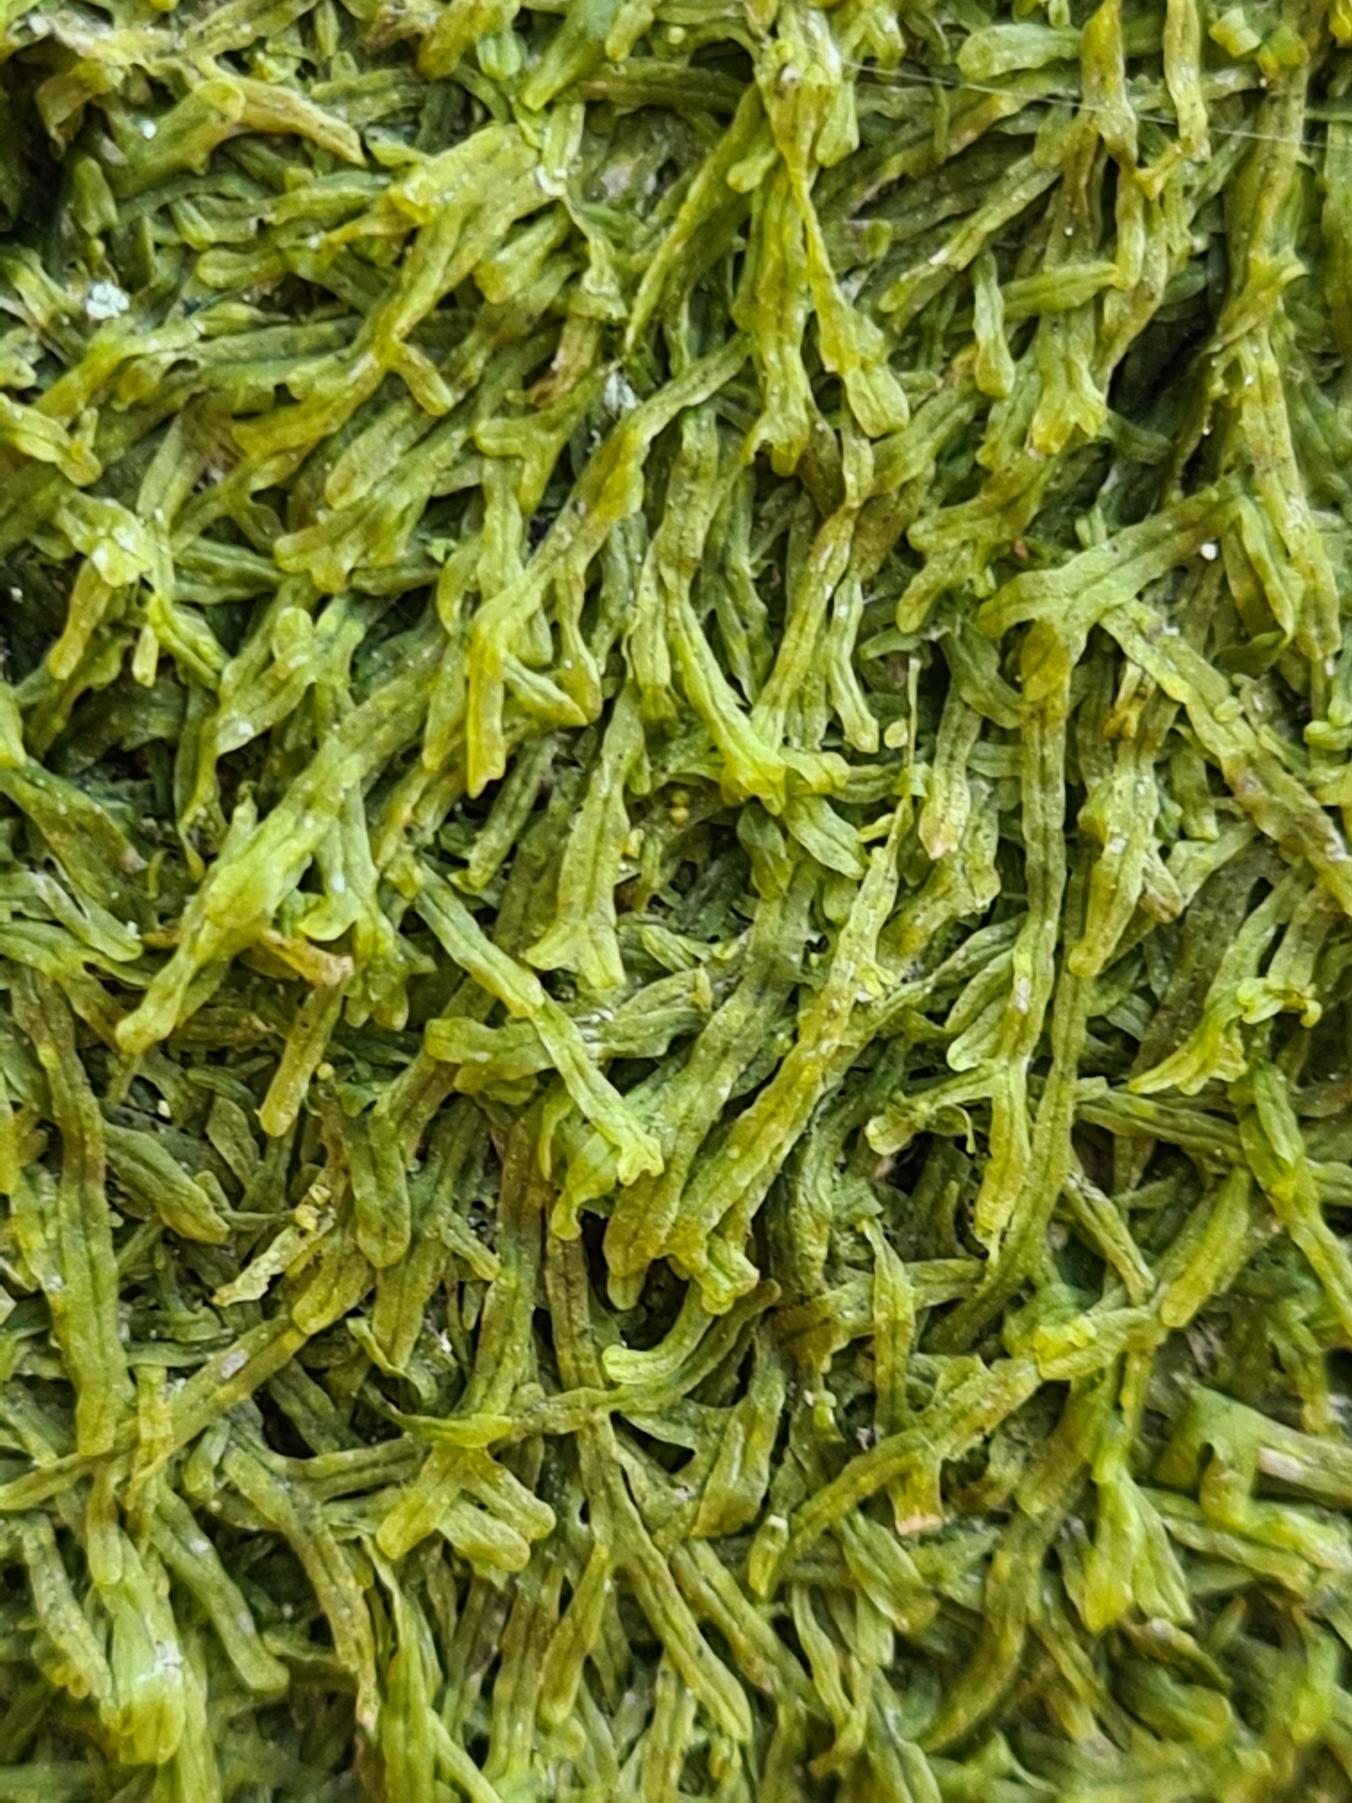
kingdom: Plantae
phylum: Marchantiophyta
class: Jungermanniopsida
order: Metzgeriales
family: Metzgeriaceae
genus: Metzgeria
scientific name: Metzgeria furcata
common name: Almindelig gaffelløv
